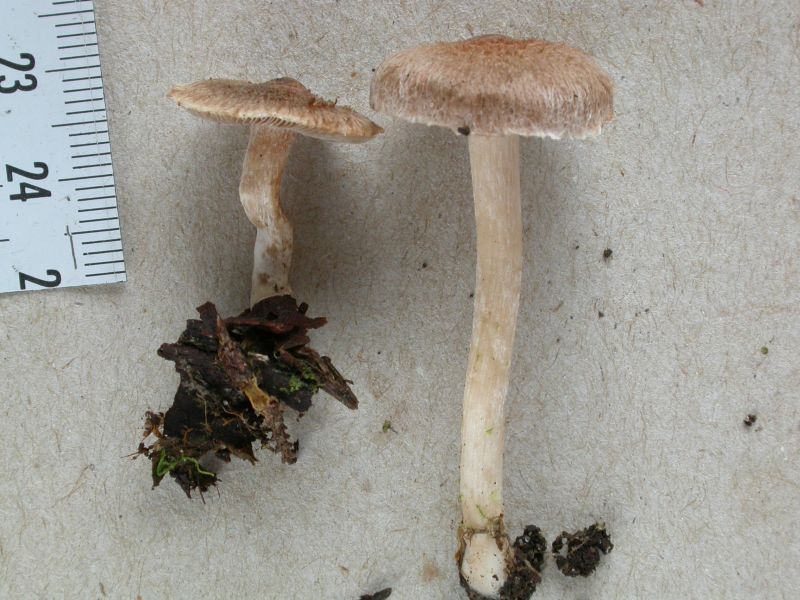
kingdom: Fungi
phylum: Basidiomycota
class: Agaricomycetes
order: Agaricales
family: Inocybaceae
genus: Inocybe
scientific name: Inocybe
